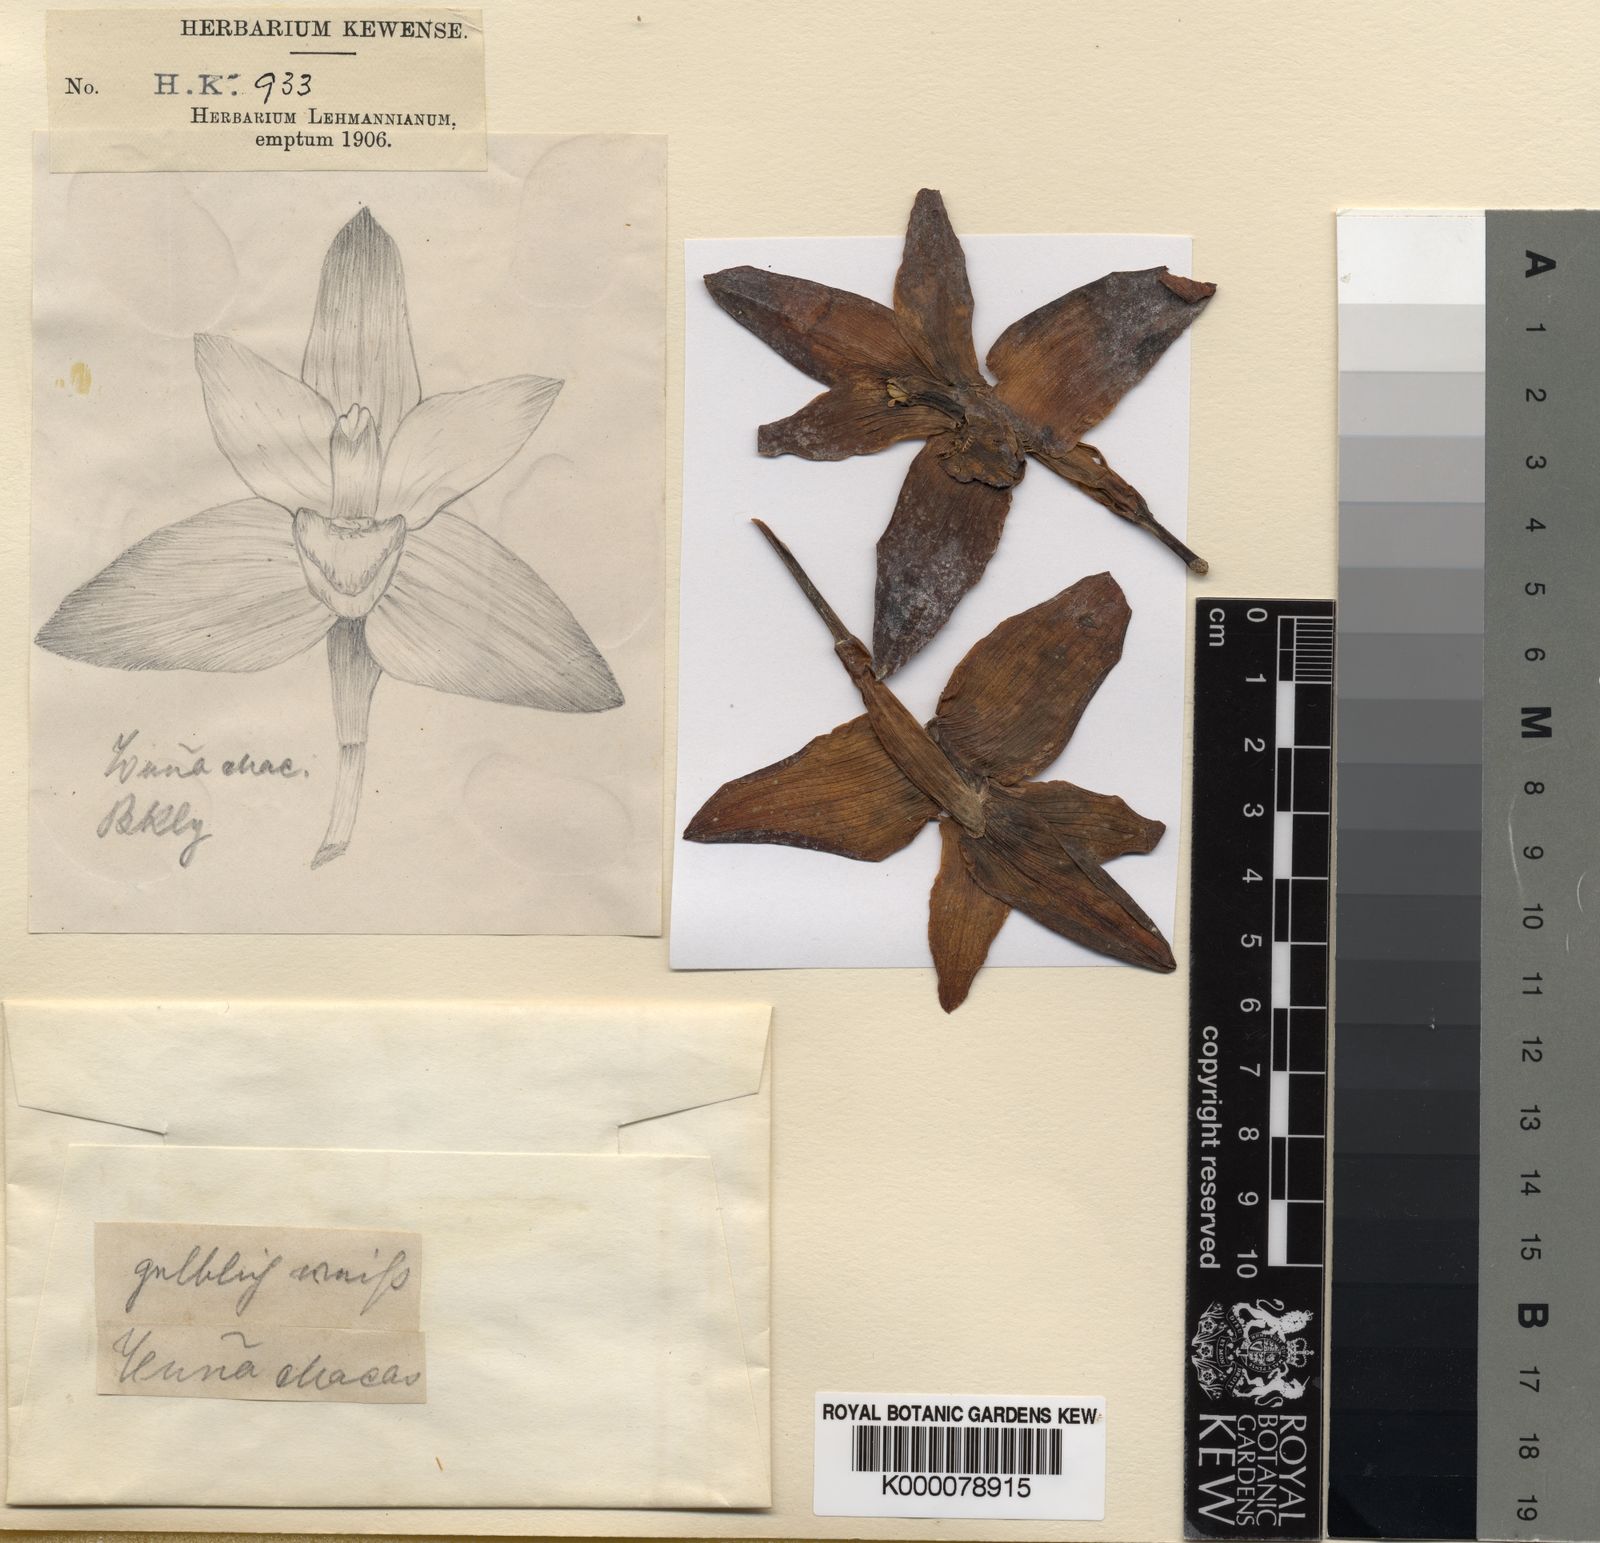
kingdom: Plantae
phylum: Tracheophyta
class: Liliopsida
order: Asparagales
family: Orchidaceae
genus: Maxillaria
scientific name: Maxillaria
